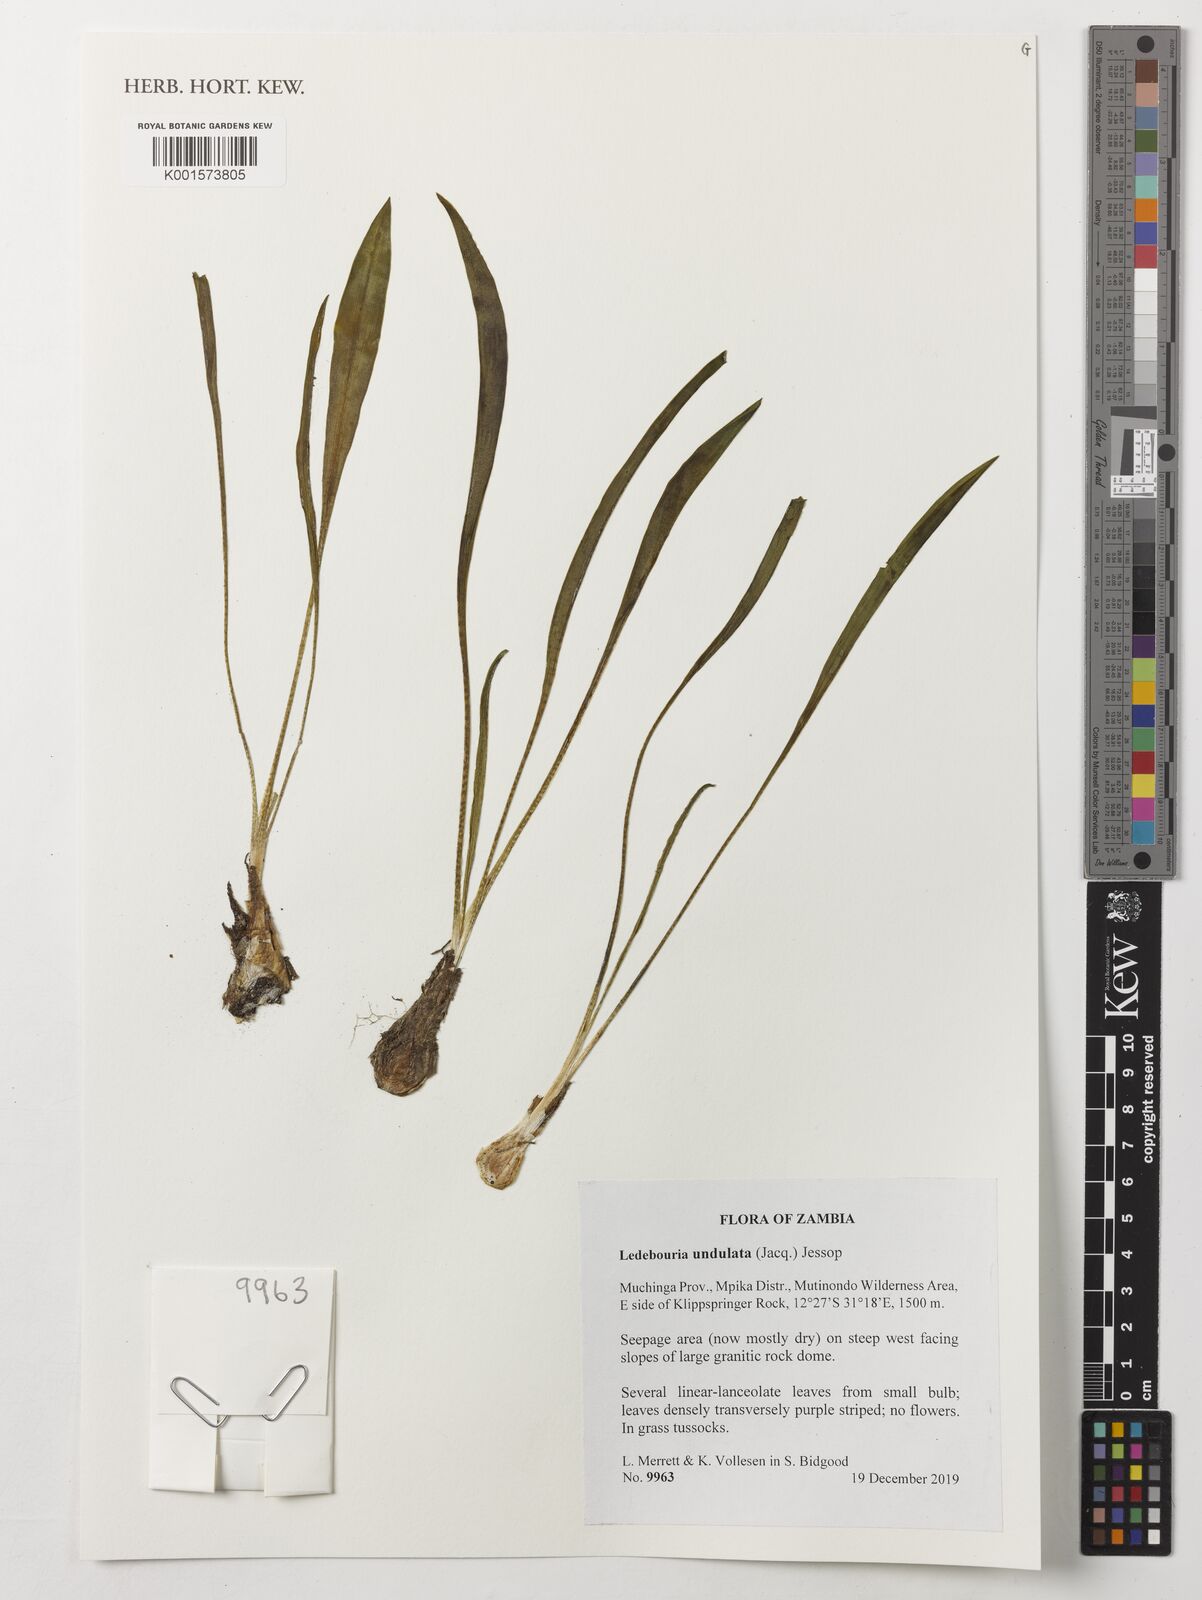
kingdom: Plantae
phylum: Tracheophyta
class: Liliopsida
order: Asparagales
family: Asparagaceae
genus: Ledebouria
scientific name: Ledebouria undulata
